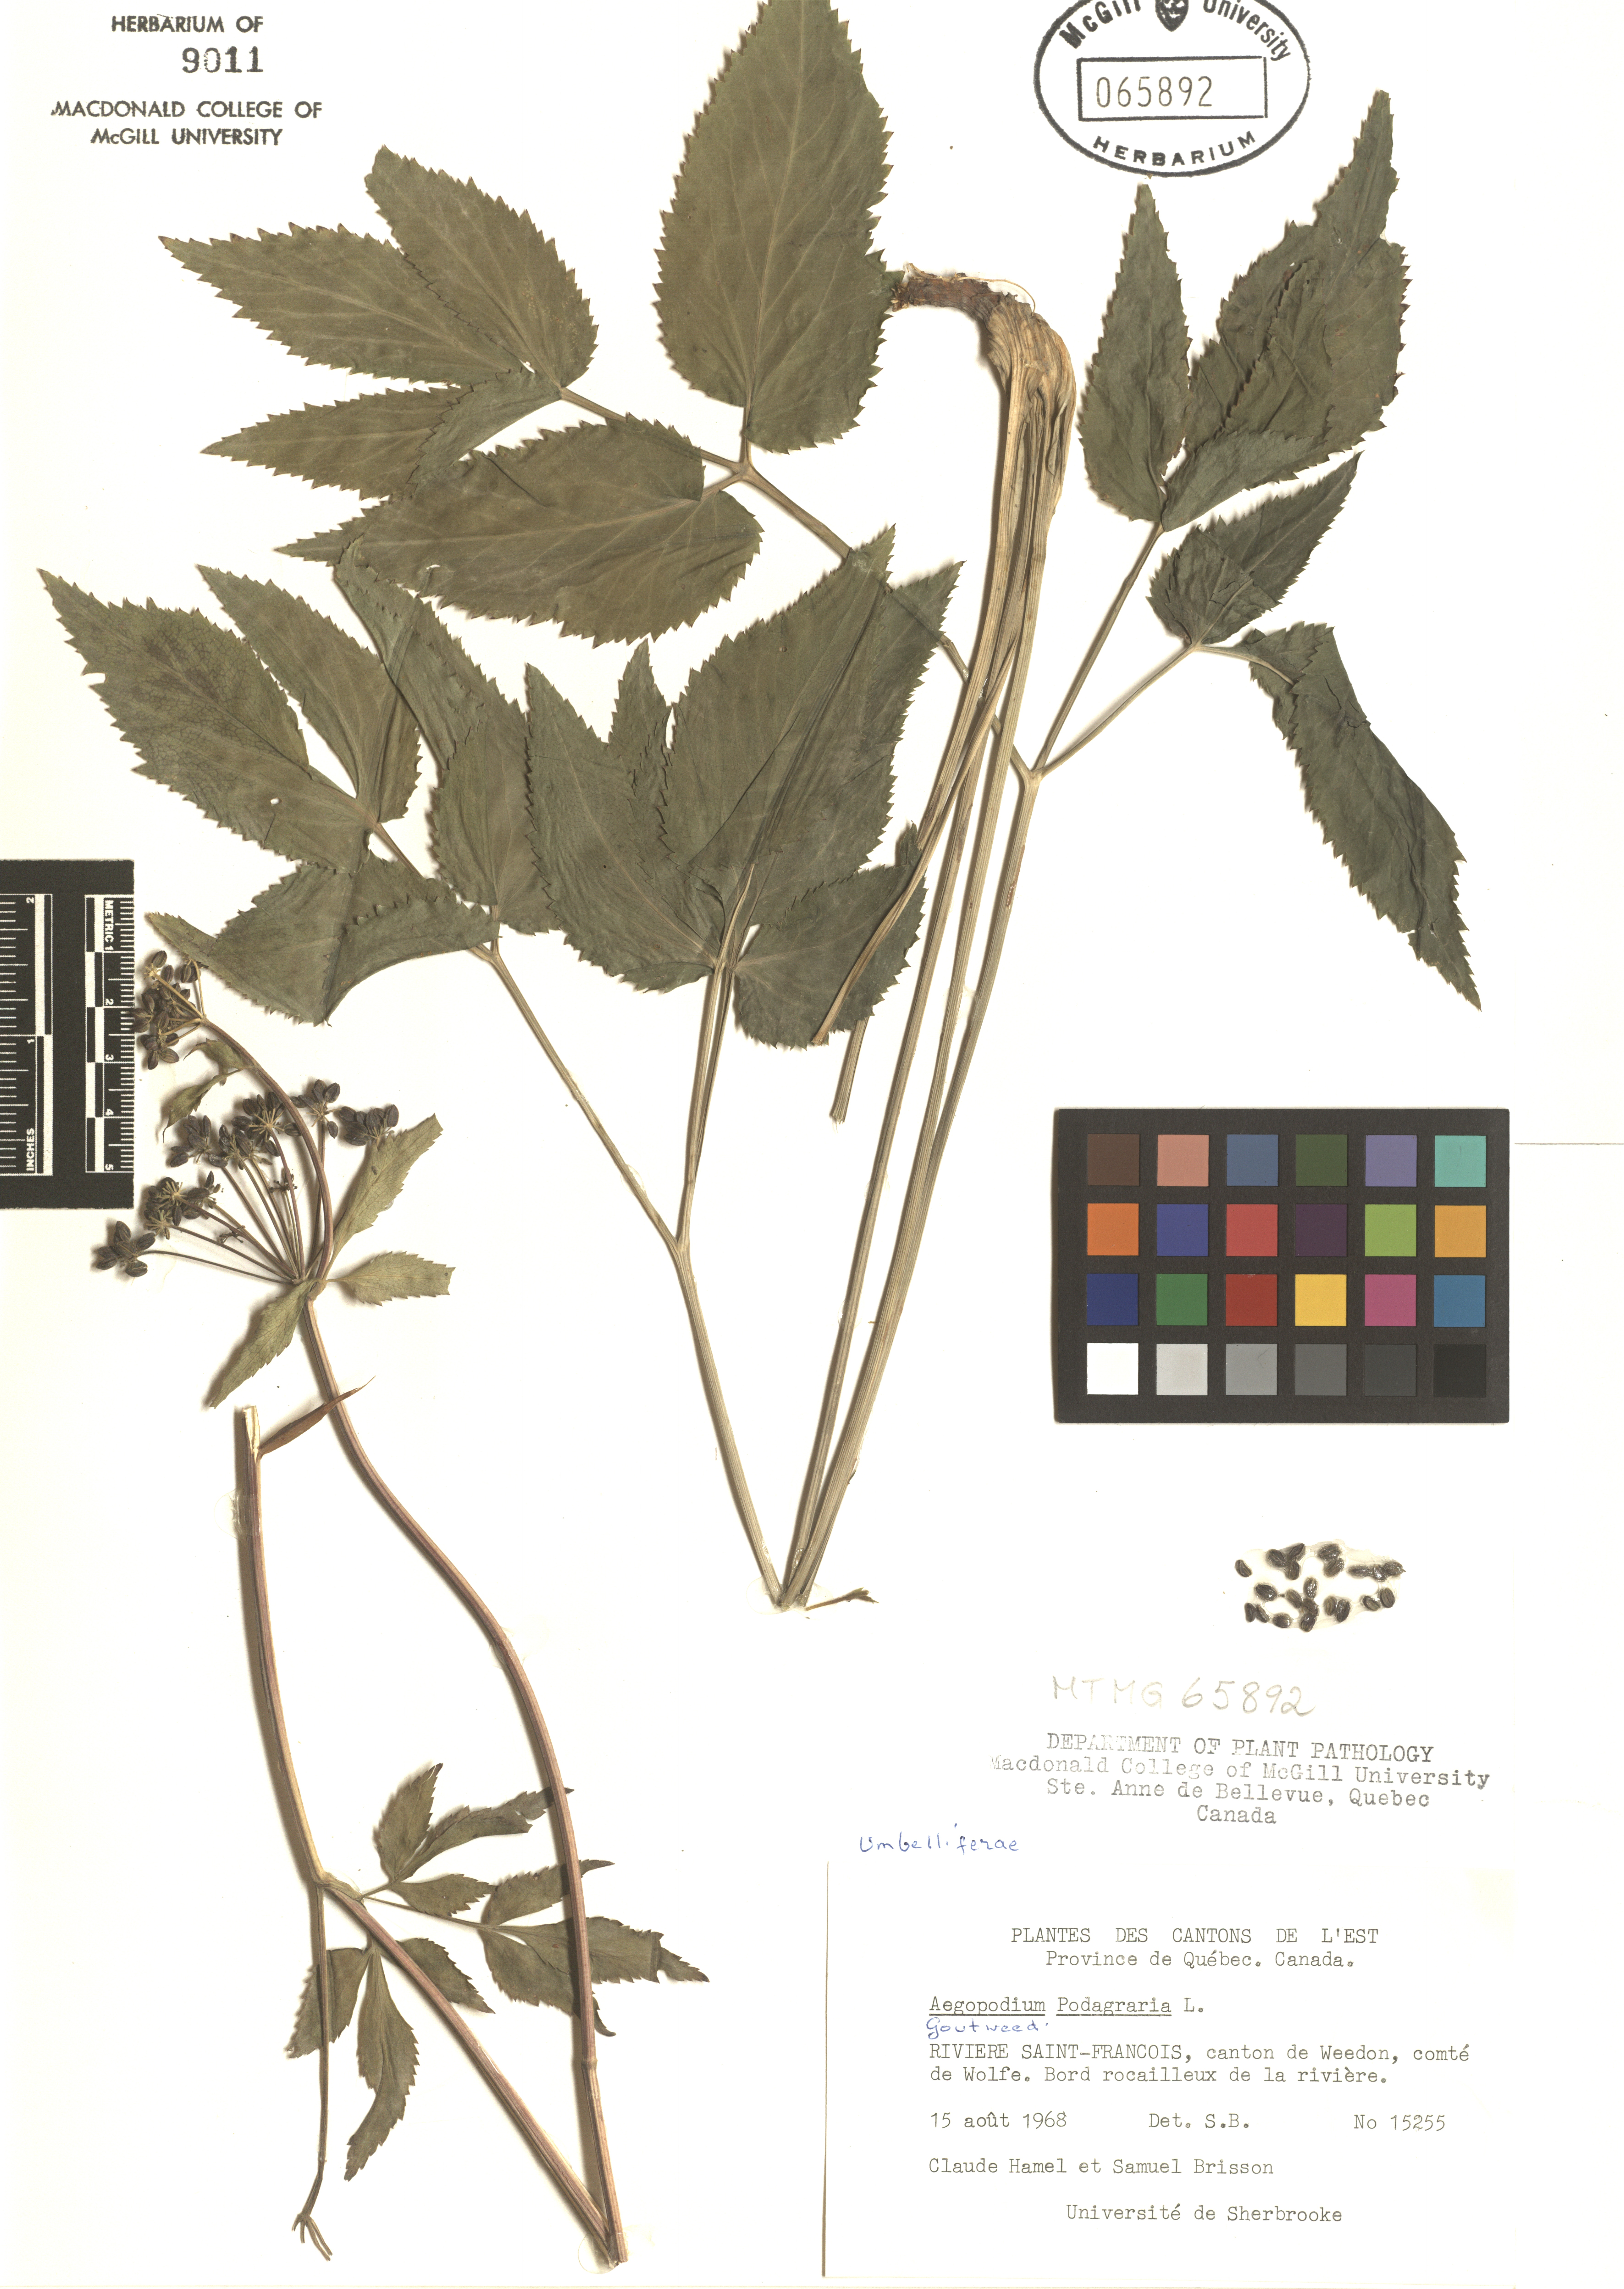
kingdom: Plantae
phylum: Tracheophyta
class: Magnoliopsida
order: Apiales
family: Apiaceae
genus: Aegopodium
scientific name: Aegopodium podagraria
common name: Ground-elder
